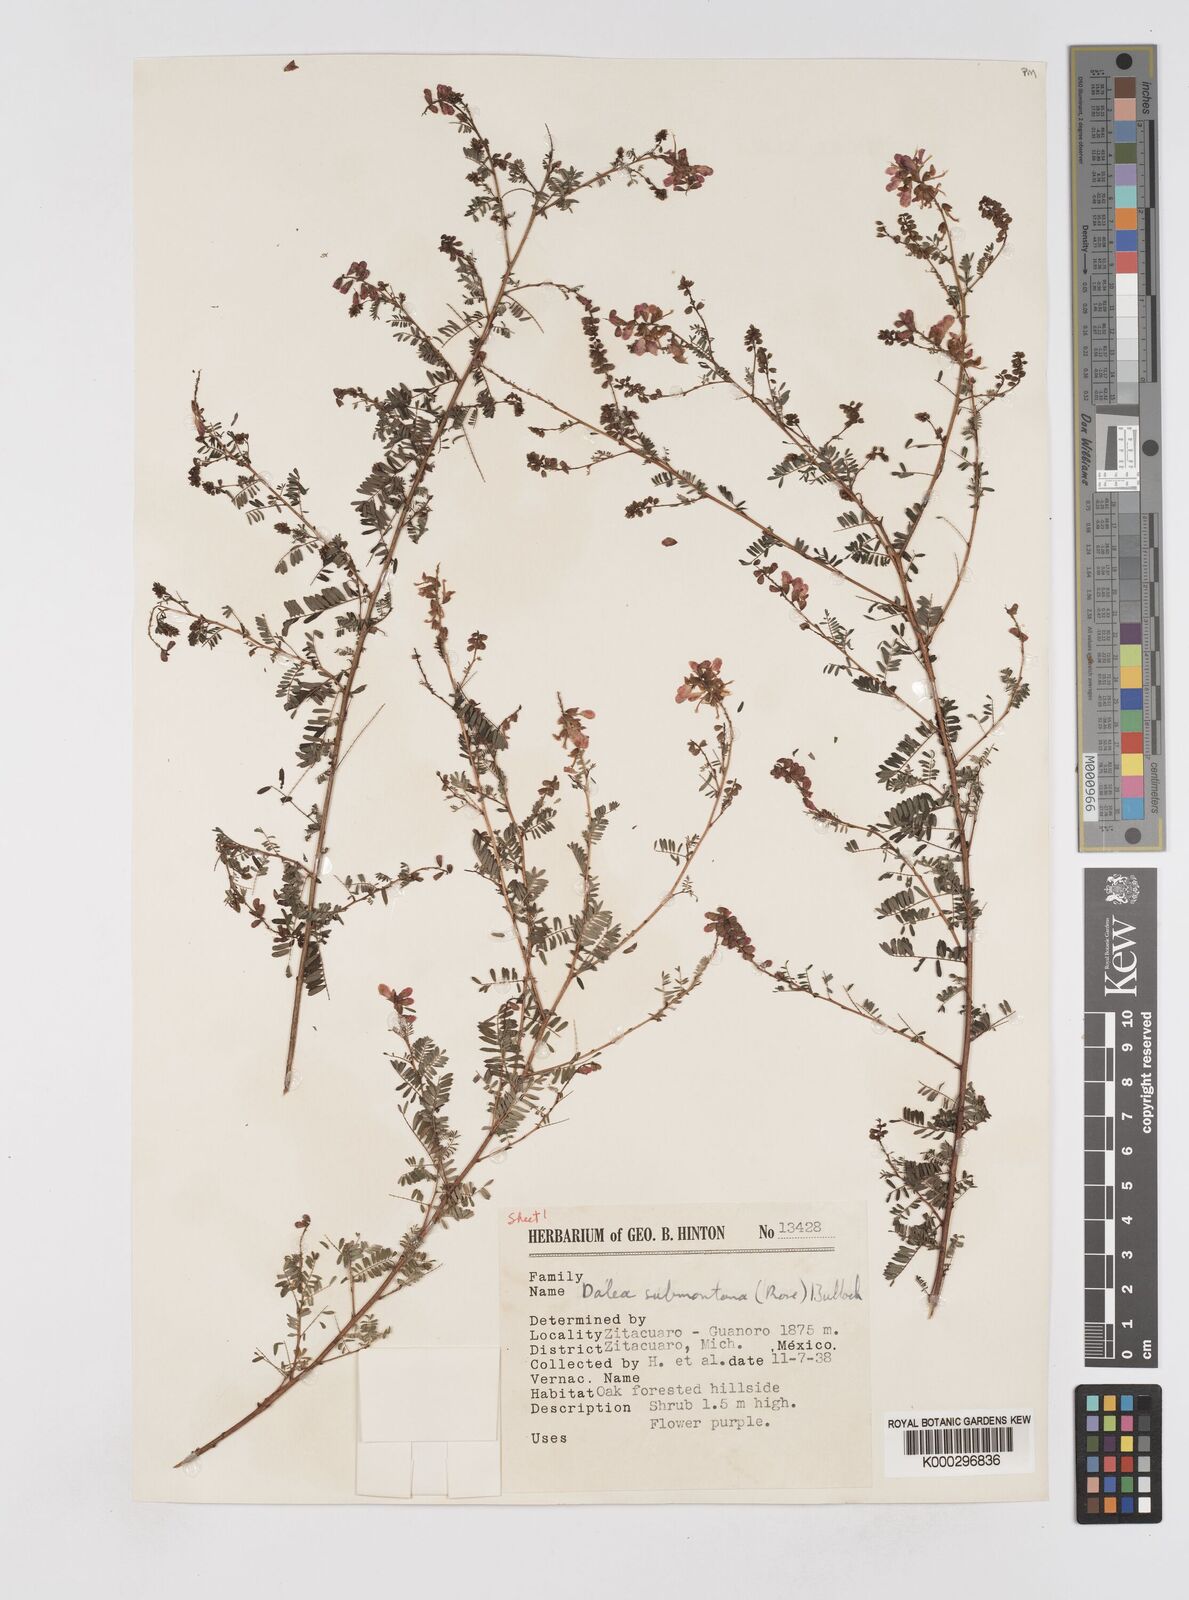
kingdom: Plantae
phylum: Tracheophyta
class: Magnoliopsida
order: Fabales
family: Fabaceae
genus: Marina
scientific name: Marina nutans
